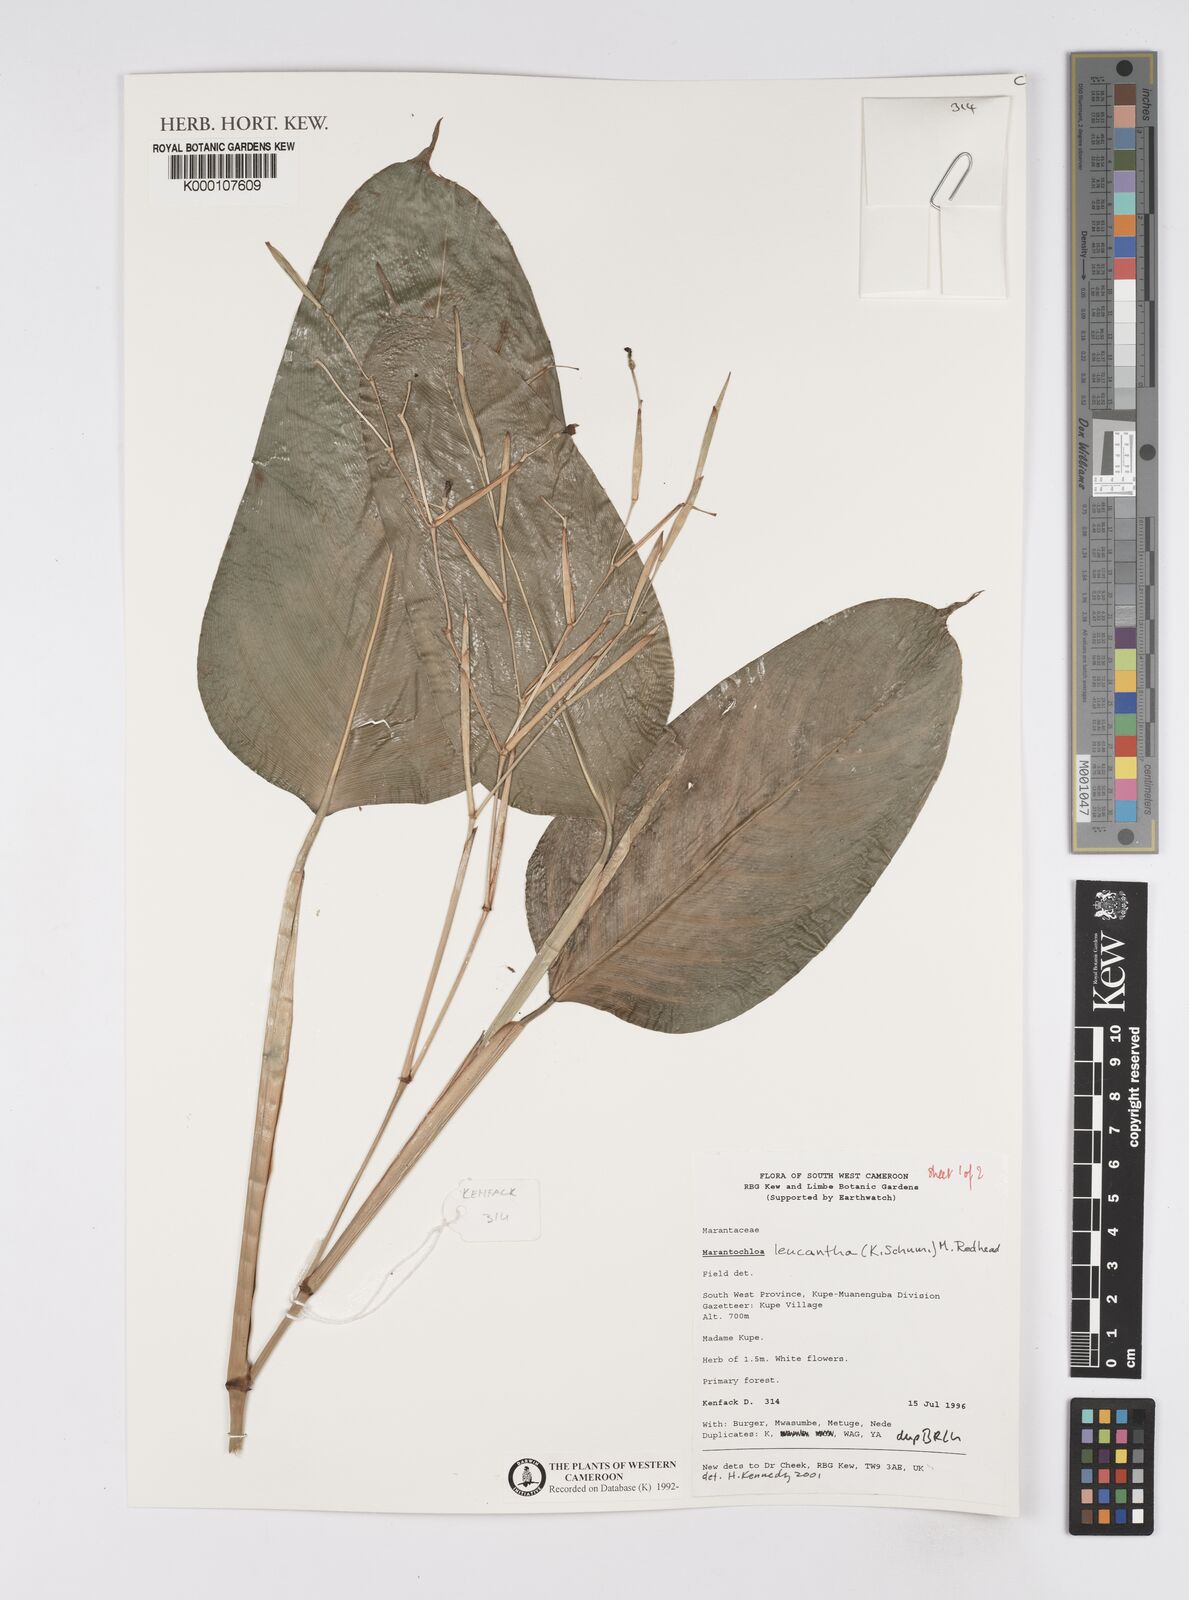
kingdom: Plantae
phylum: Tracheophyta
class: Liliopsida
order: Zingiberales
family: Marantaceae
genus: Marantochloa
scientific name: Marantochloa leucantha
